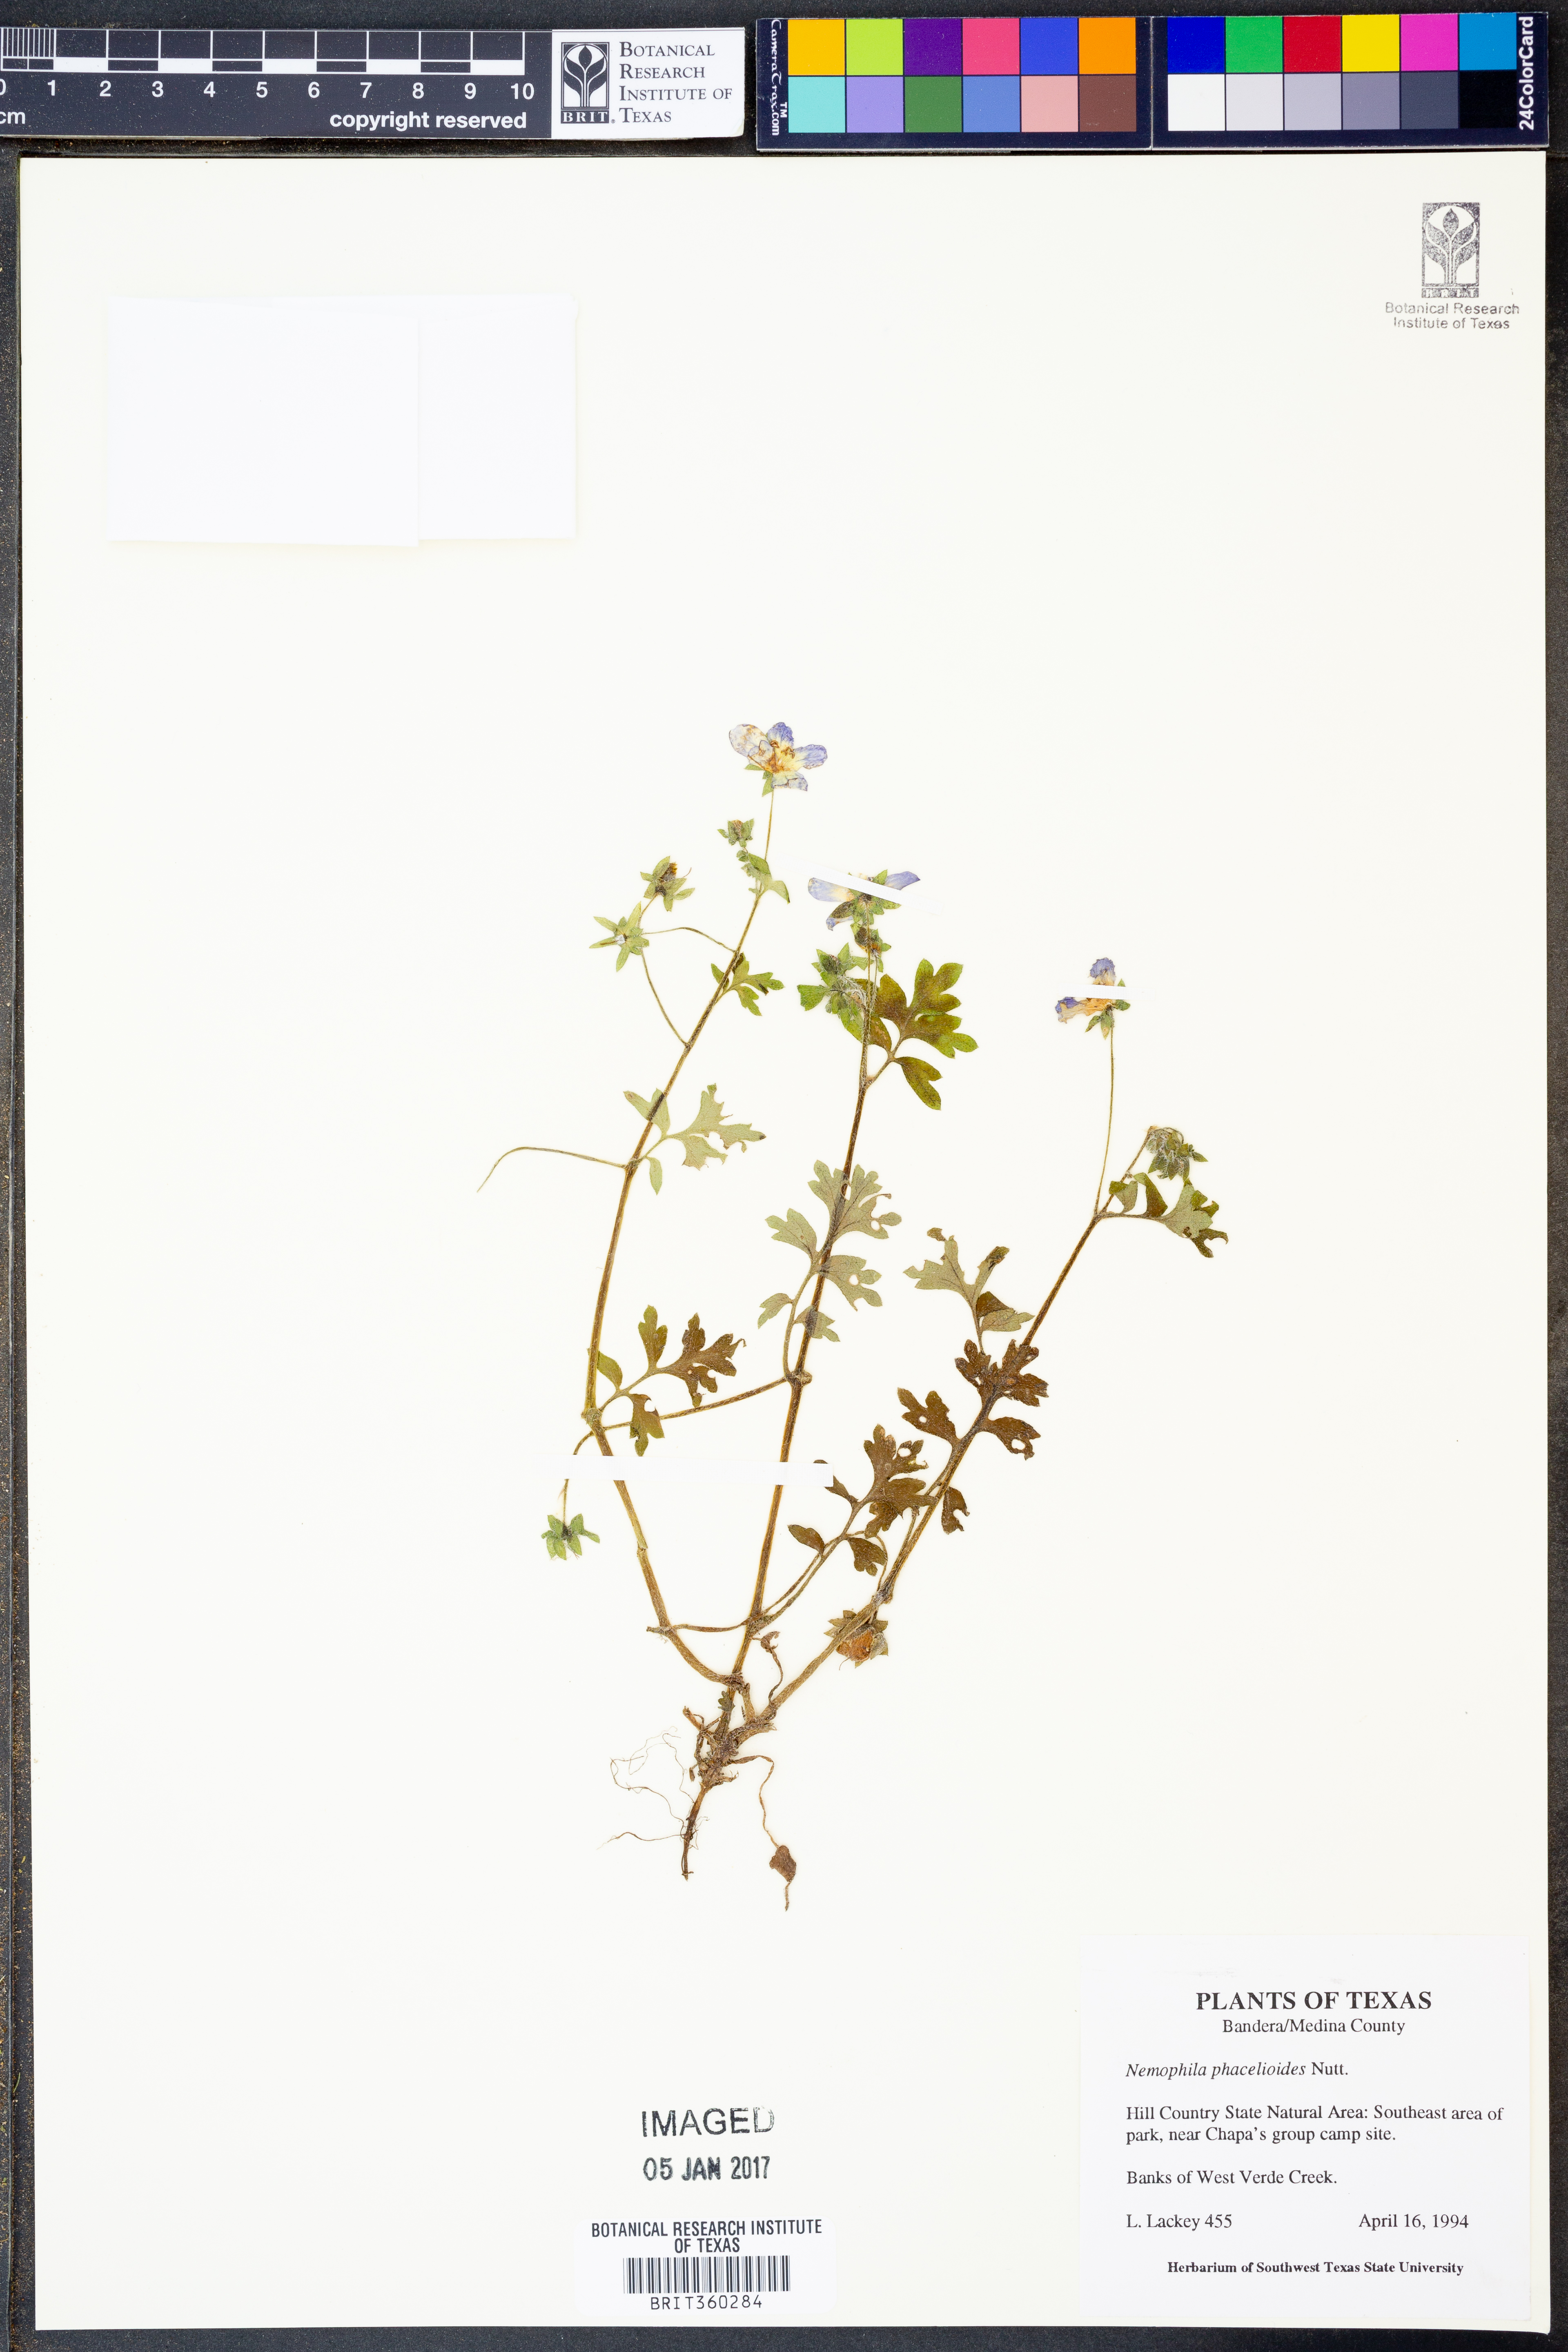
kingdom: Plantae
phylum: Tracheophyta
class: Magnoliopsida
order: Boraginales
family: Hydrophyllaceae
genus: Nemophila
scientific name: Nemophila phacelioides
